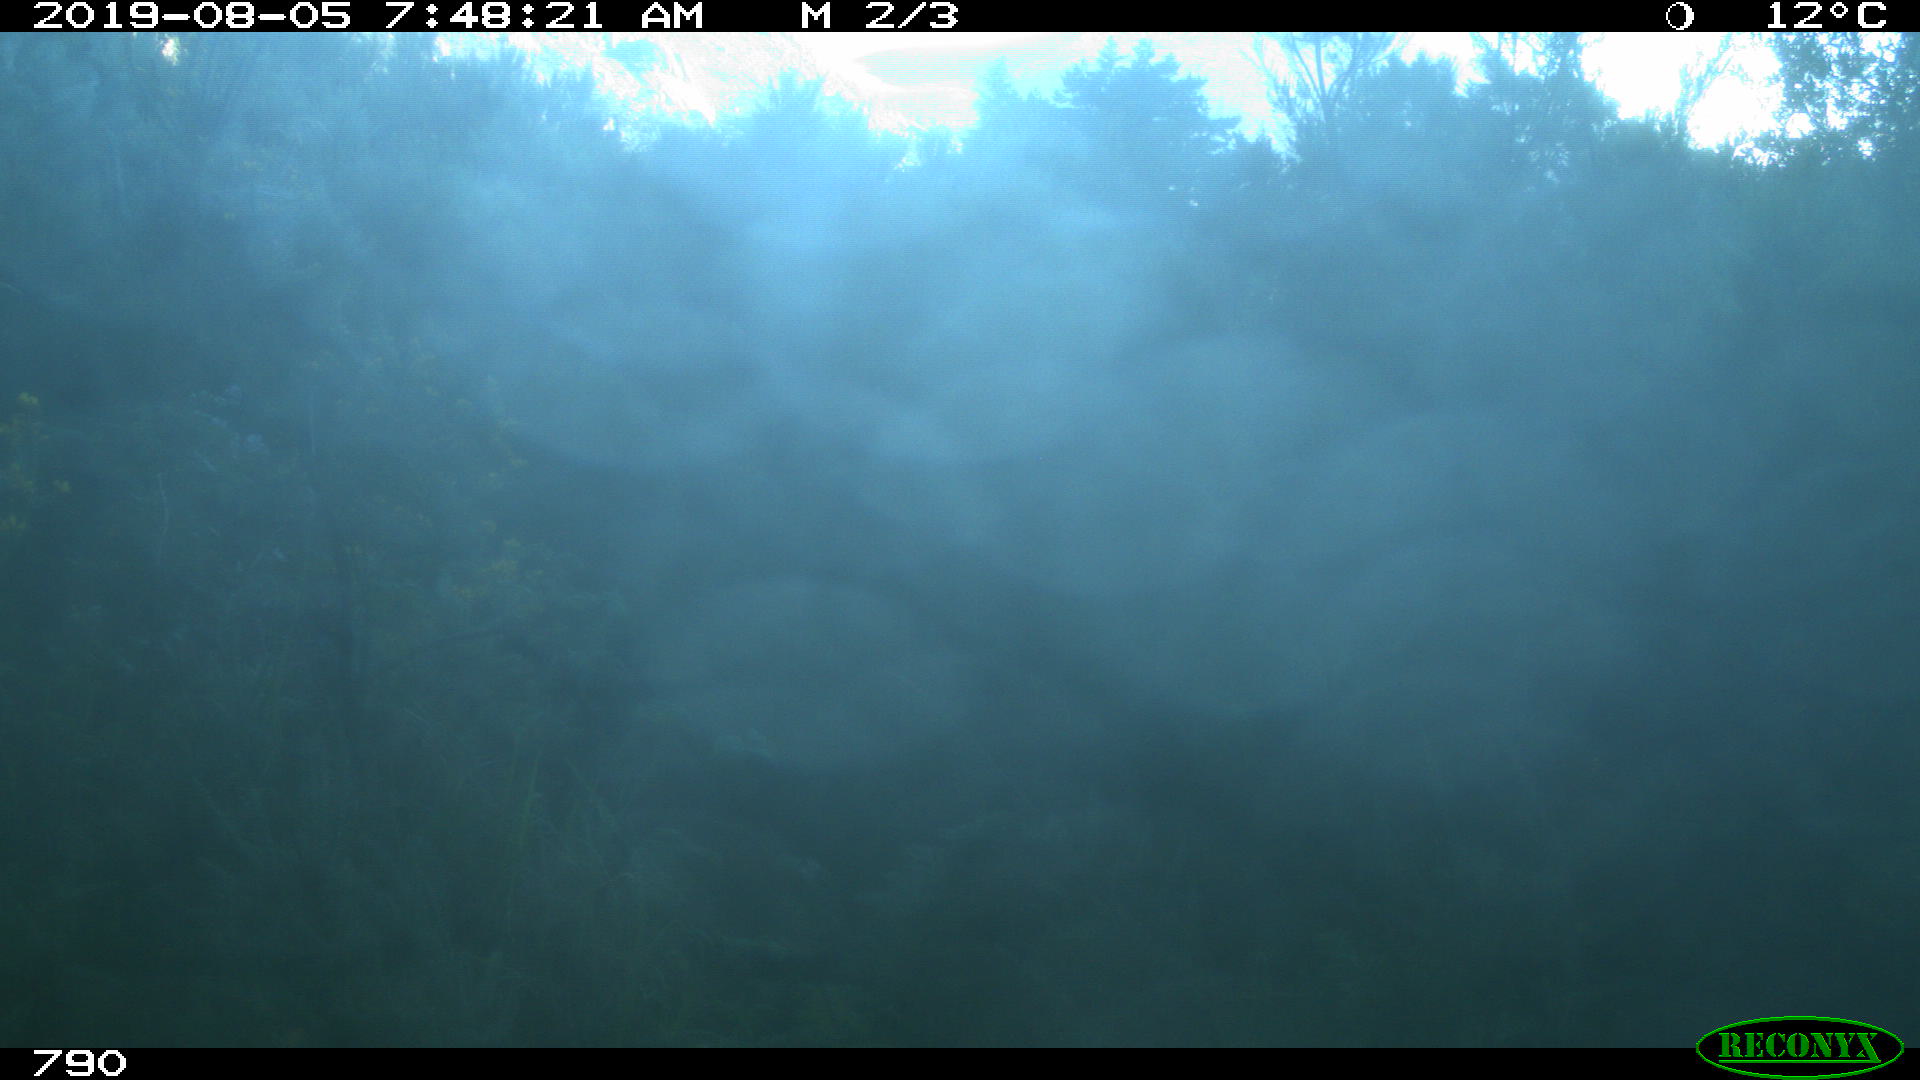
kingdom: Animalia
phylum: Chordata
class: Mammalia
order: Artiodactyla
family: Cervidae
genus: Capreolus
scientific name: Capreolus capreolus
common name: Western roe deer
